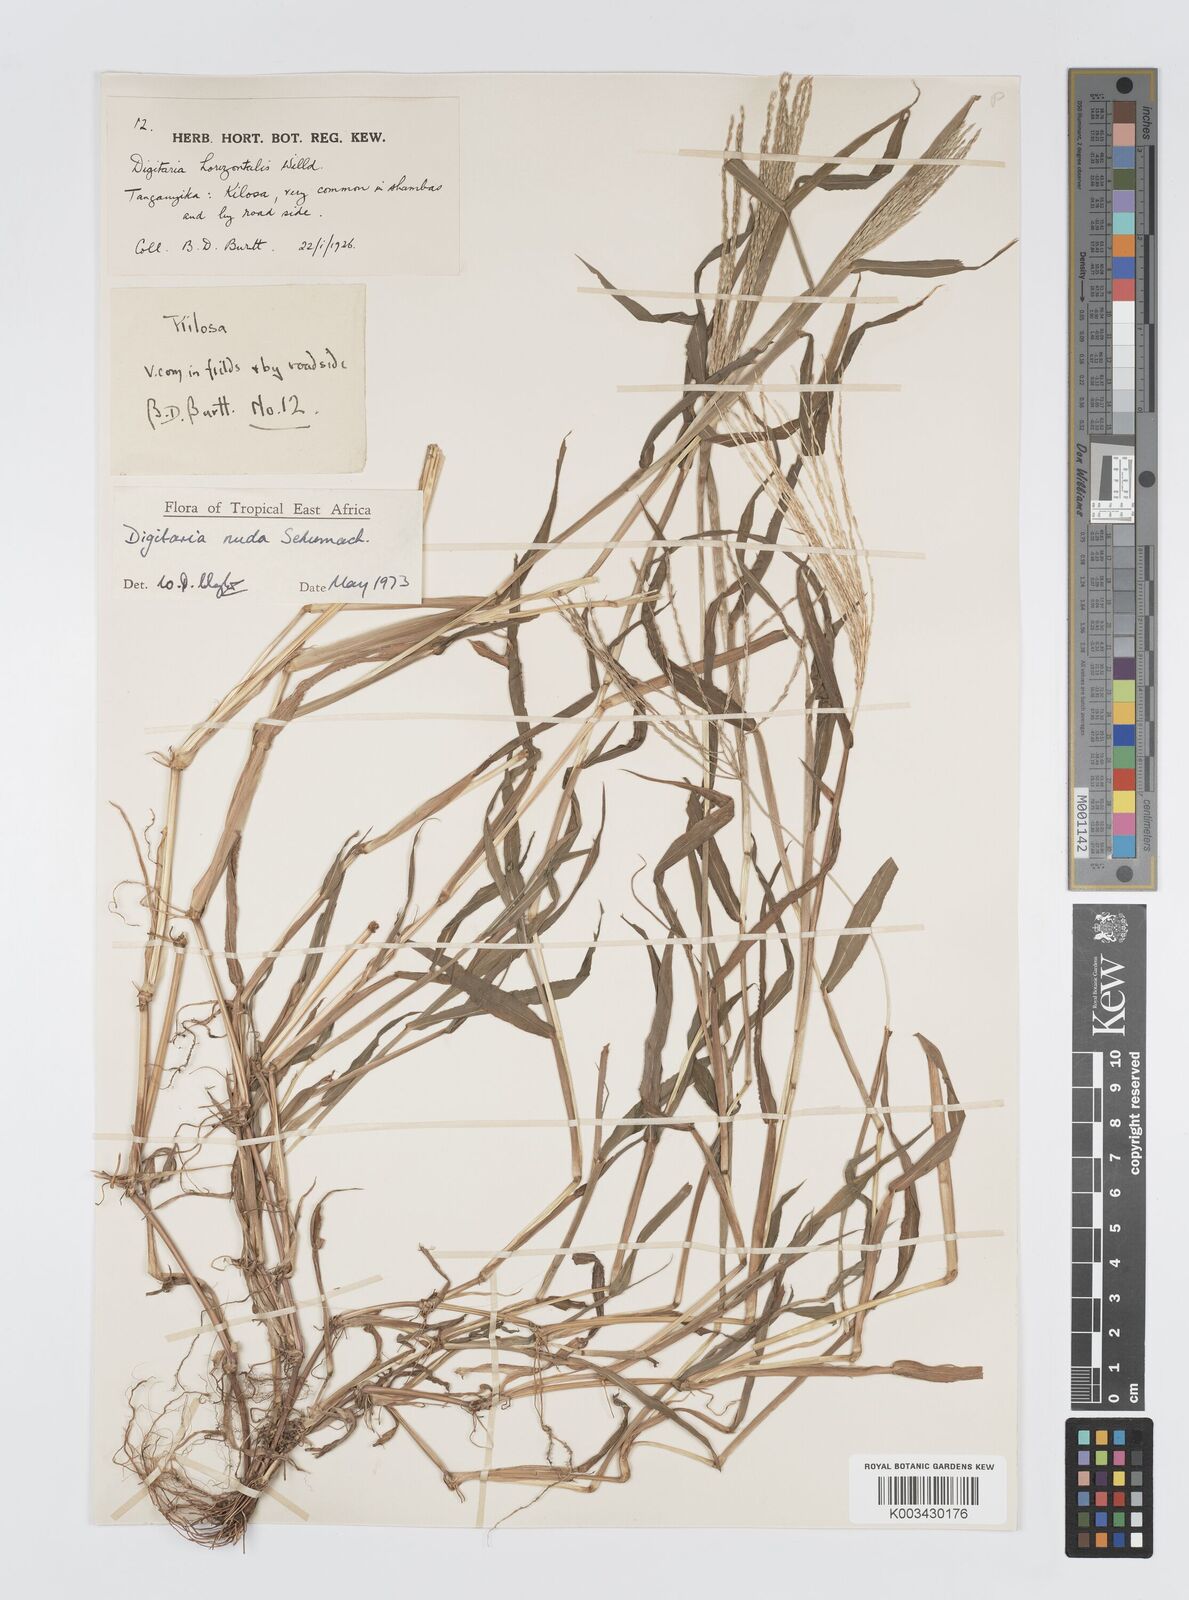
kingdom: Plantae
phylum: Tracheophyta
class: Liliopsida
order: Poales
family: Poaceae
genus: Digitaria
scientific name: Digitaria nuda
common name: Naked crabgrass
